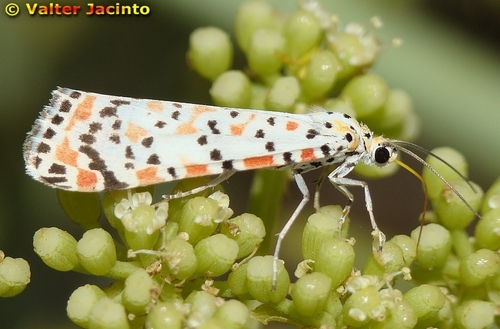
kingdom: Animalia
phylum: Arthropoda
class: Insecta
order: Lepidoptera
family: Erebidae
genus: Utetheisa
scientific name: Utetheisa pulchella
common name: Crimson speckled
